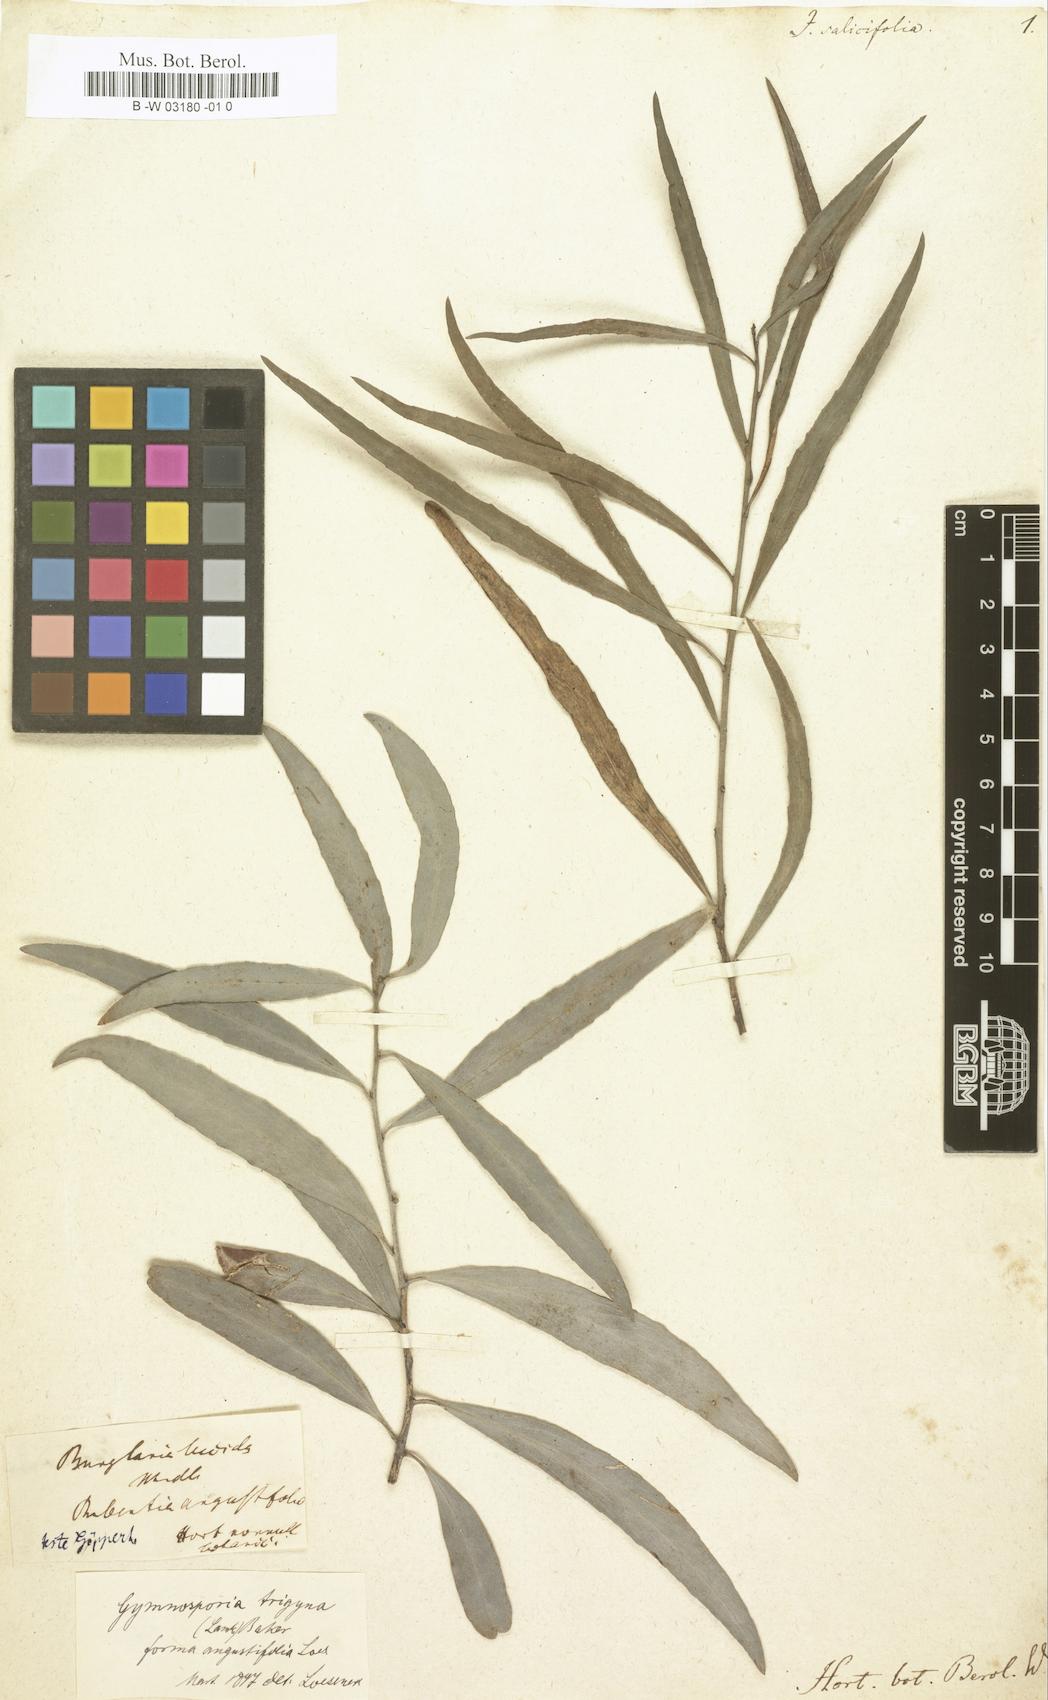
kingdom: Plantae
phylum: Tracheophyta
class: Magnoliopsida
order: Celastrales
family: Celastraceae
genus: Gymnosporia
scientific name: Gymnosporia pyria
